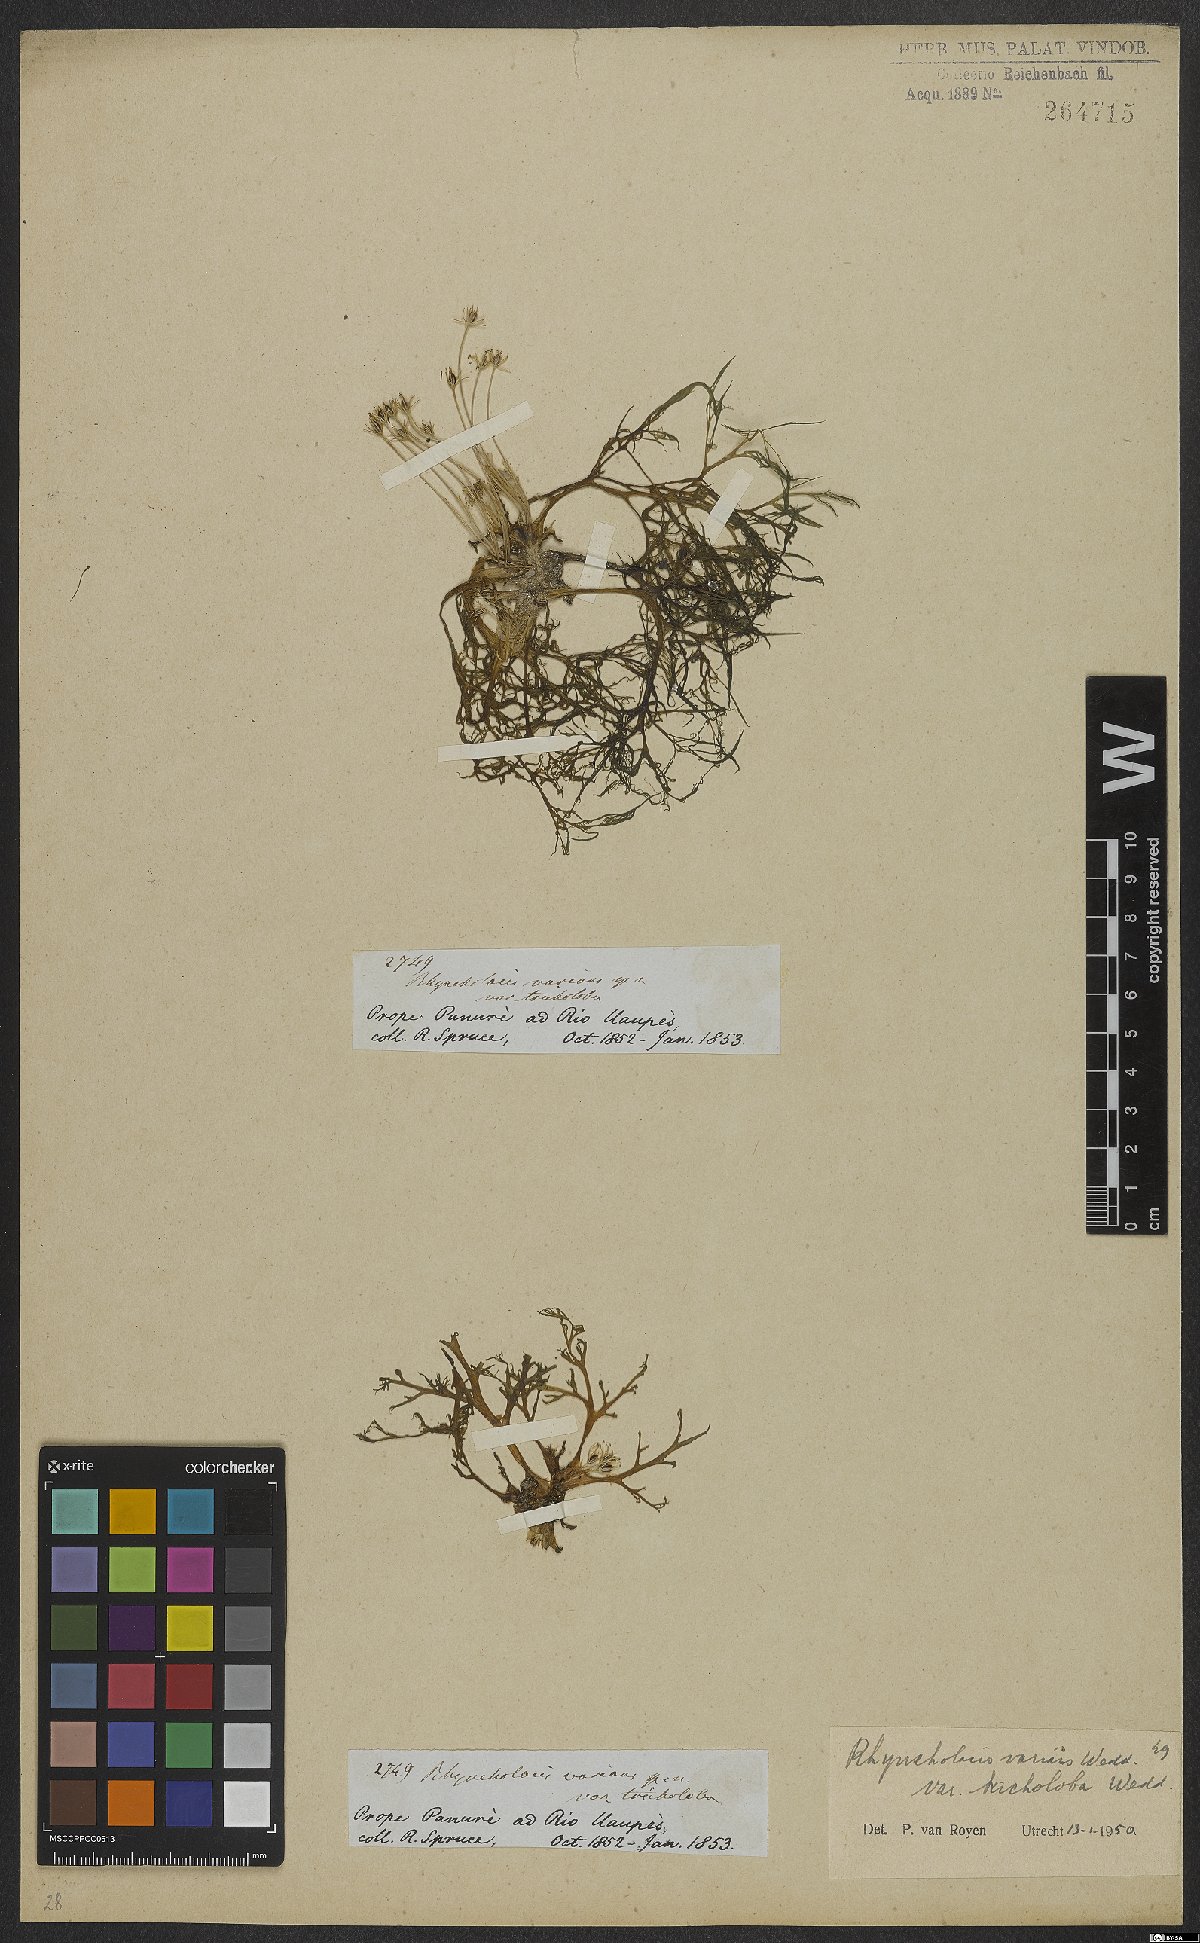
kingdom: Plantae
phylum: Tracheophyta
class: Magnoliopsida
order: Malpighiales
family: Podostemaceae
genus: Rhyncholacis
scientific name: Rhyncholacis varians
